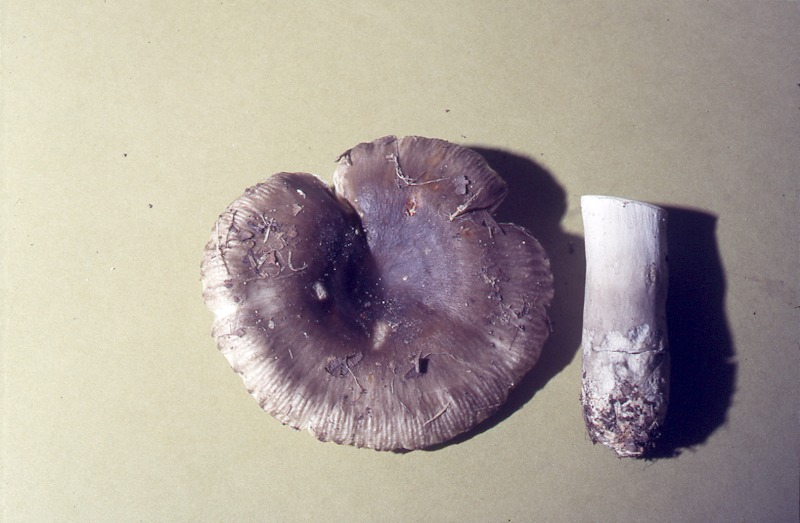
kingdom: Fungi
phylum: Basidiomycota
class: Agaricomycetes
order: Russulales
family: Russulaceae
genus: Russula
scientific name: Russula amoenolens
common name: Camembert brittlegill
